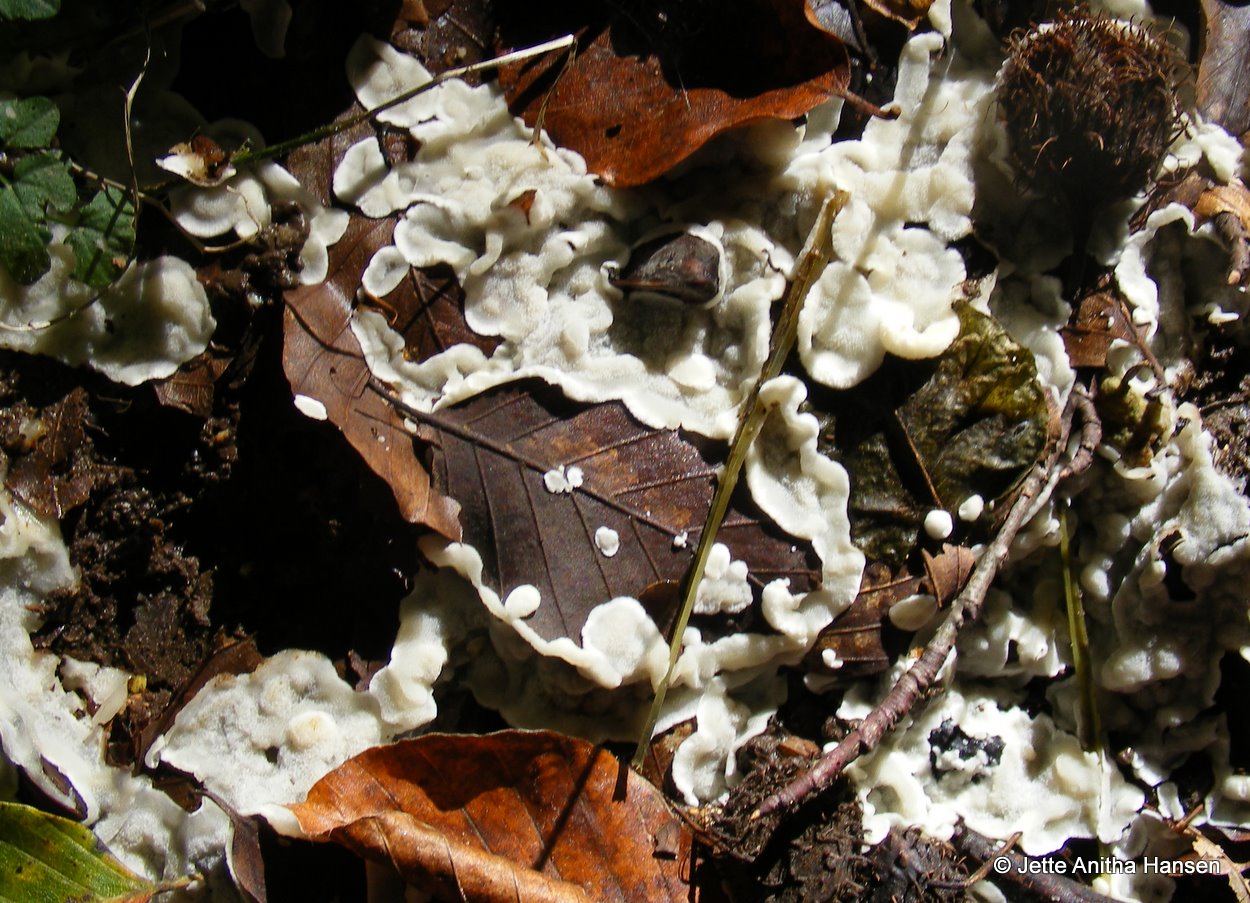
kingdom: Fungi
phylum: Basidiomycota
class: Agaricomycetes
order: Polyporales
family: Meruliaceae
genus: Physisporinus
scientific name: Physisporinus vitreus
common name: mastesvamp
